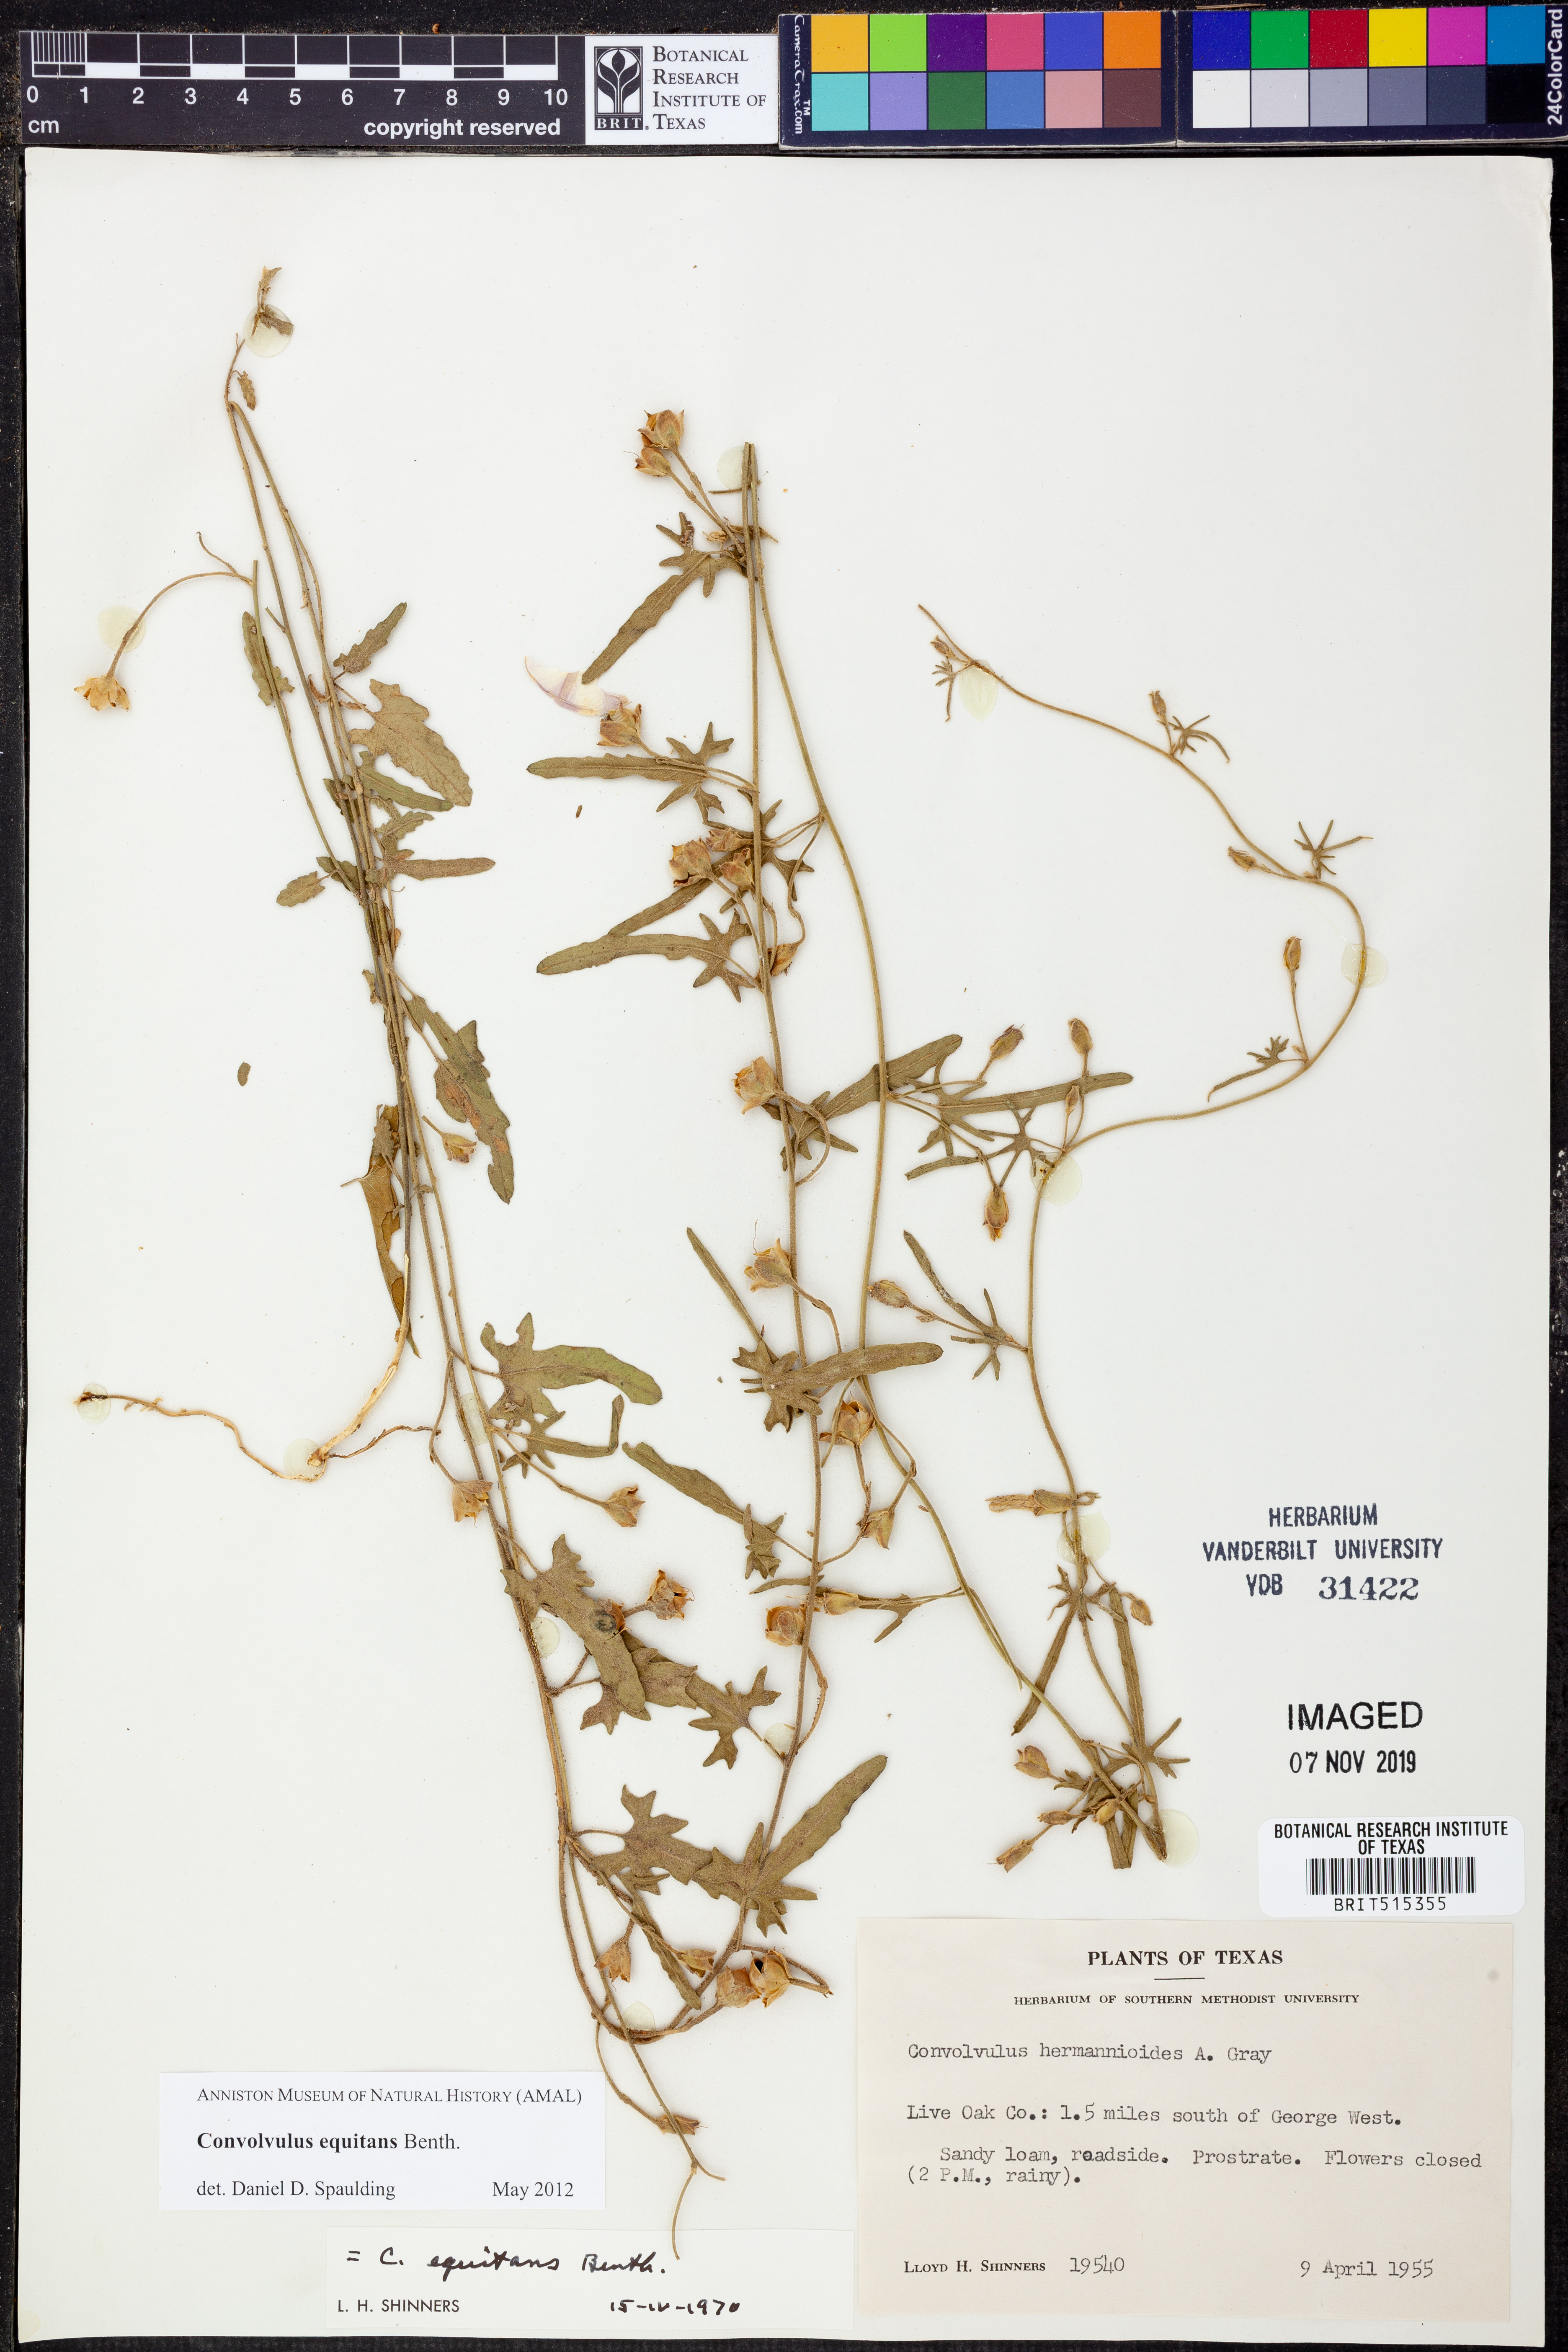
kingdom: Plantae
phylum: Tracheophyta
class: Magnoliopsida
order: Solanales
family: Convolvulaceae
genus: Convolvulus
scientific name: Convolvulus equitans
